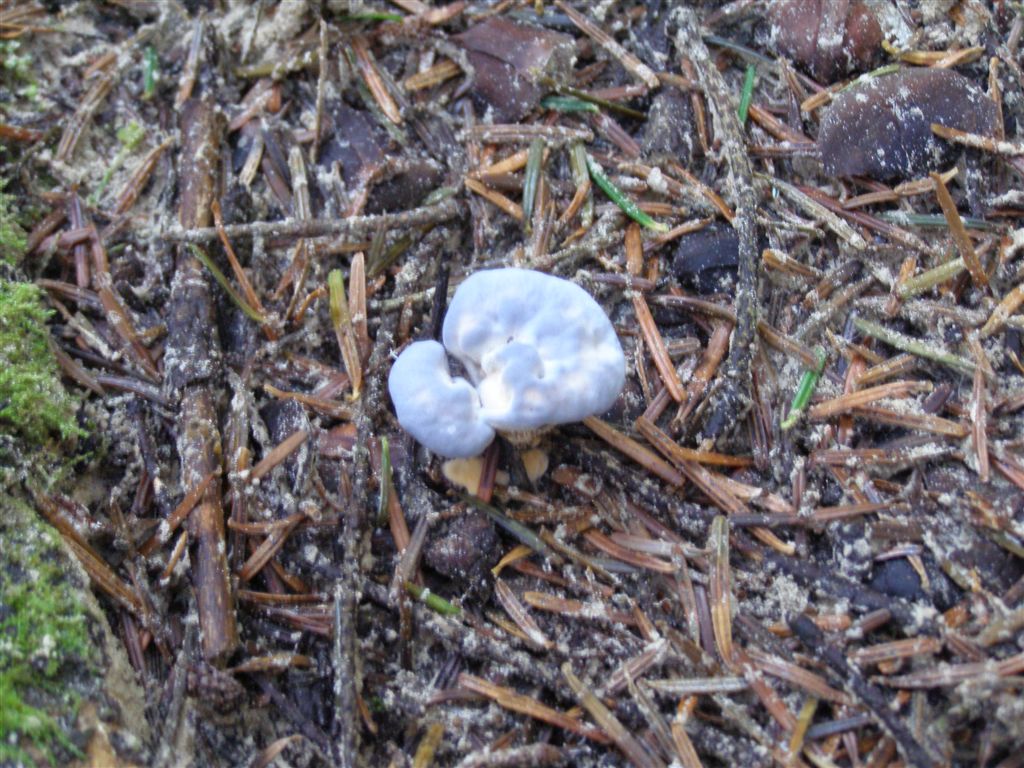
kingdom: Fungi
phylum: Basidiomycota
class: Agaricomycetes
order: Thelephorales
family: Bankeraceae
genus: Hydnellum
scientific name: Hydnellum caeruleum
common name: blålig korkpigsvamp
